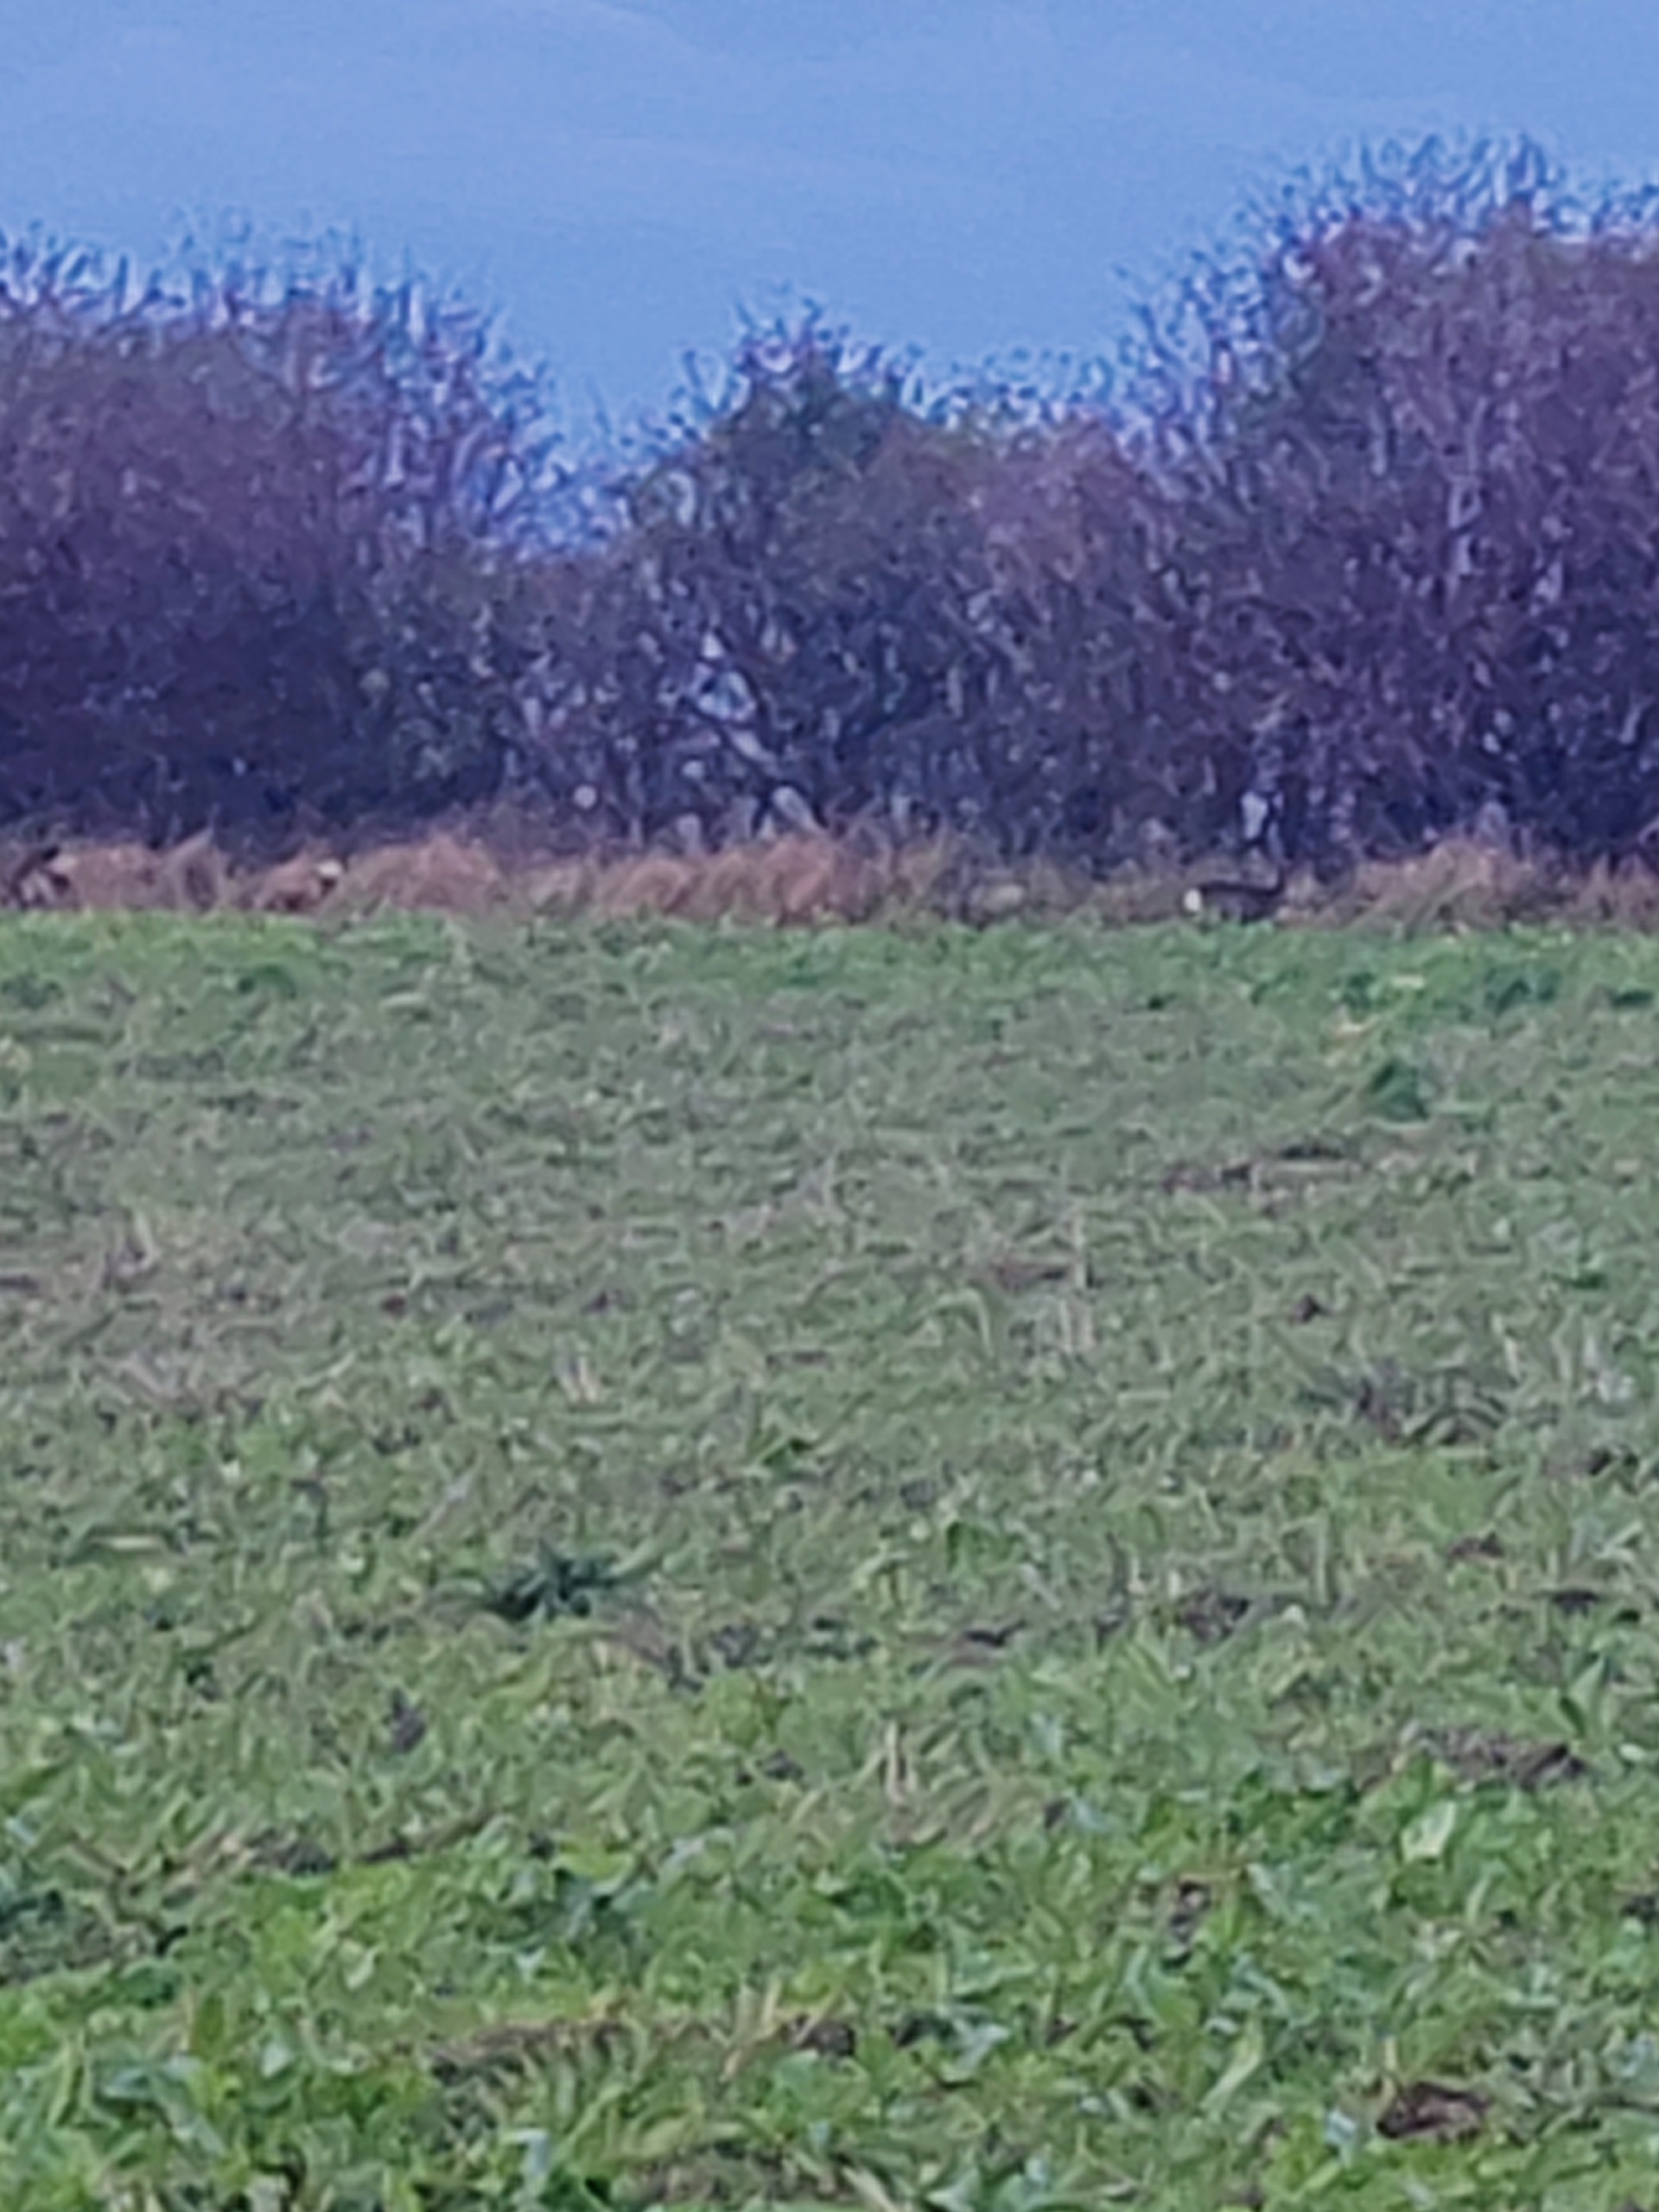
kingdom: Animalia
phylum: Chordata
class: Mammalia
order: Artiodactyla
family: Cervidae
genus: Capreolus
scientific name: Capreolus capreolus
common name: Rådyr
